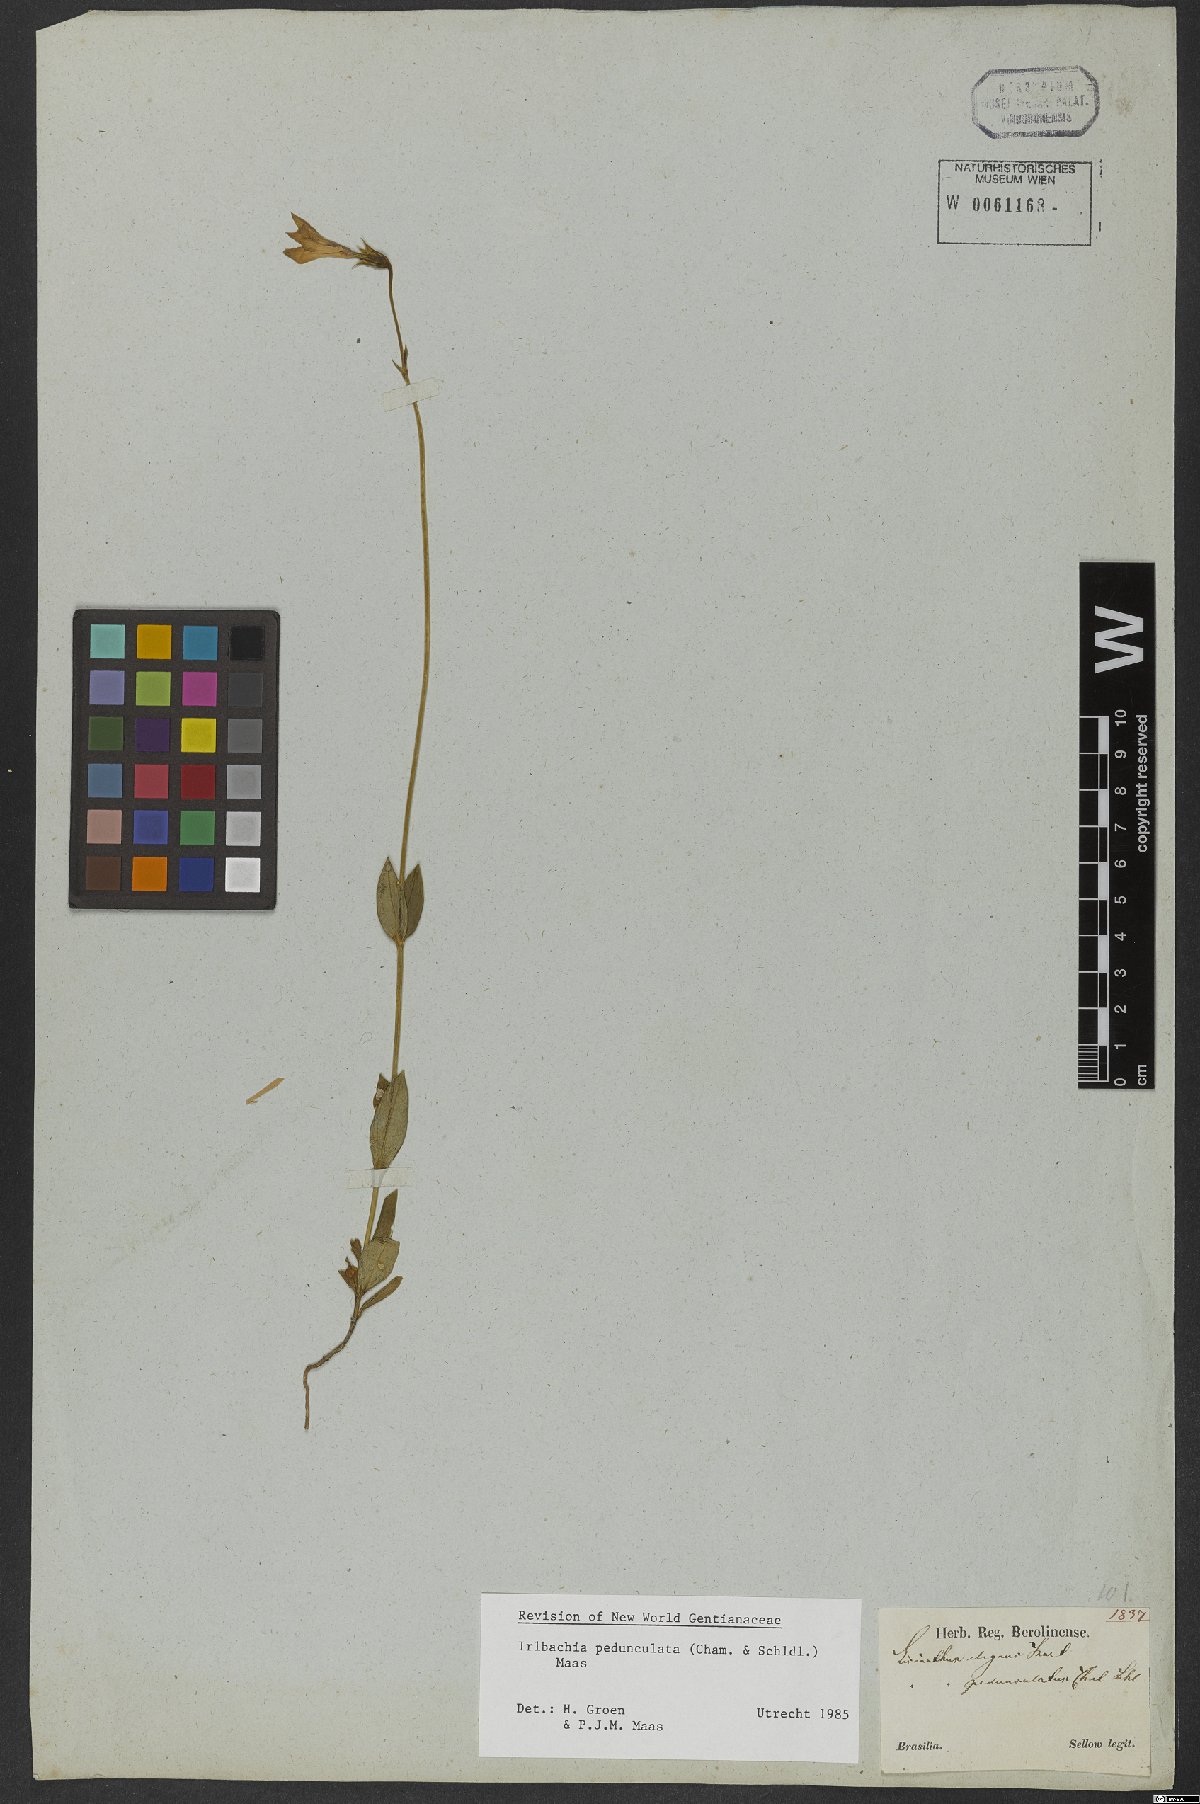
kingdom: Plantae
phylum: Tracheophyta
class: Magnoliopsida
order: Gentianales
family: Gentianaceae
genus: Calolisianthus
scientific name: Calolisianthus pedunculatus
